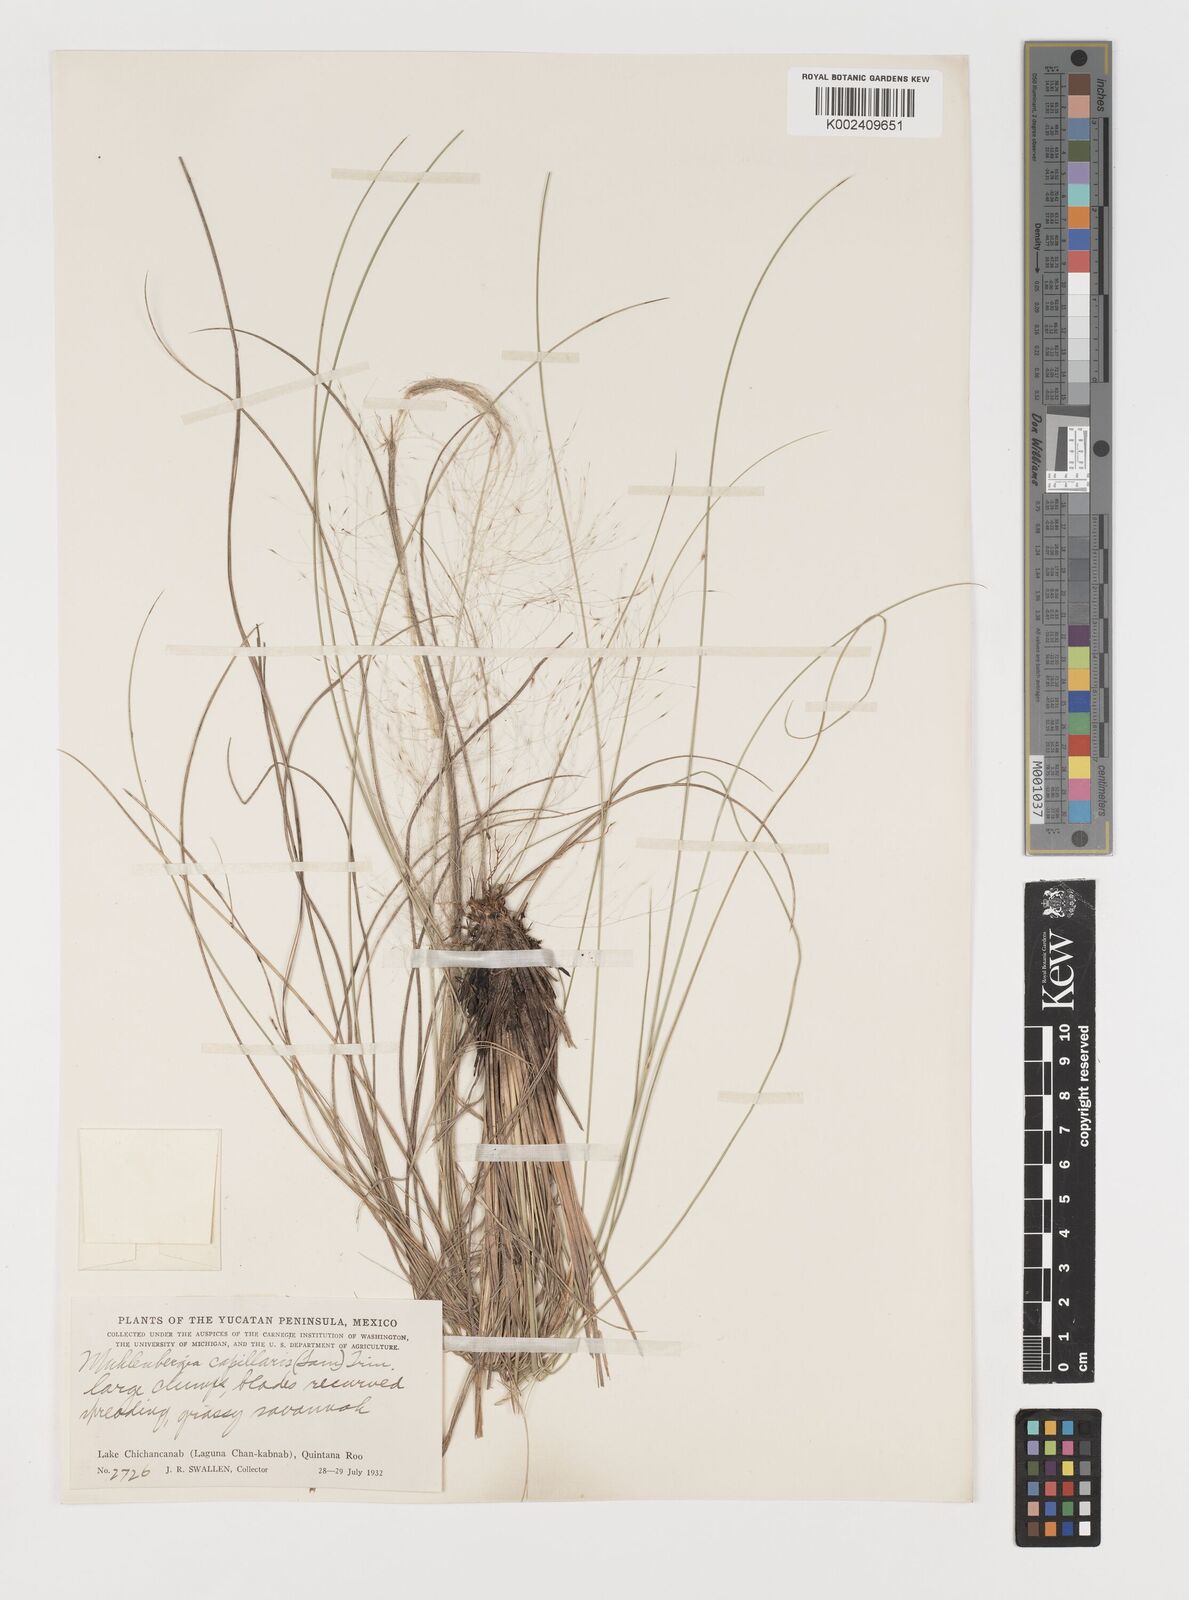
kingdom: Plantae
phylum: Tracheophyta
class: Liliopsida
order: Poales
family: Poaceae
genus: Muhlenbergia
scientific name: Muhlenbergia capillaris
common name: Purple grass
